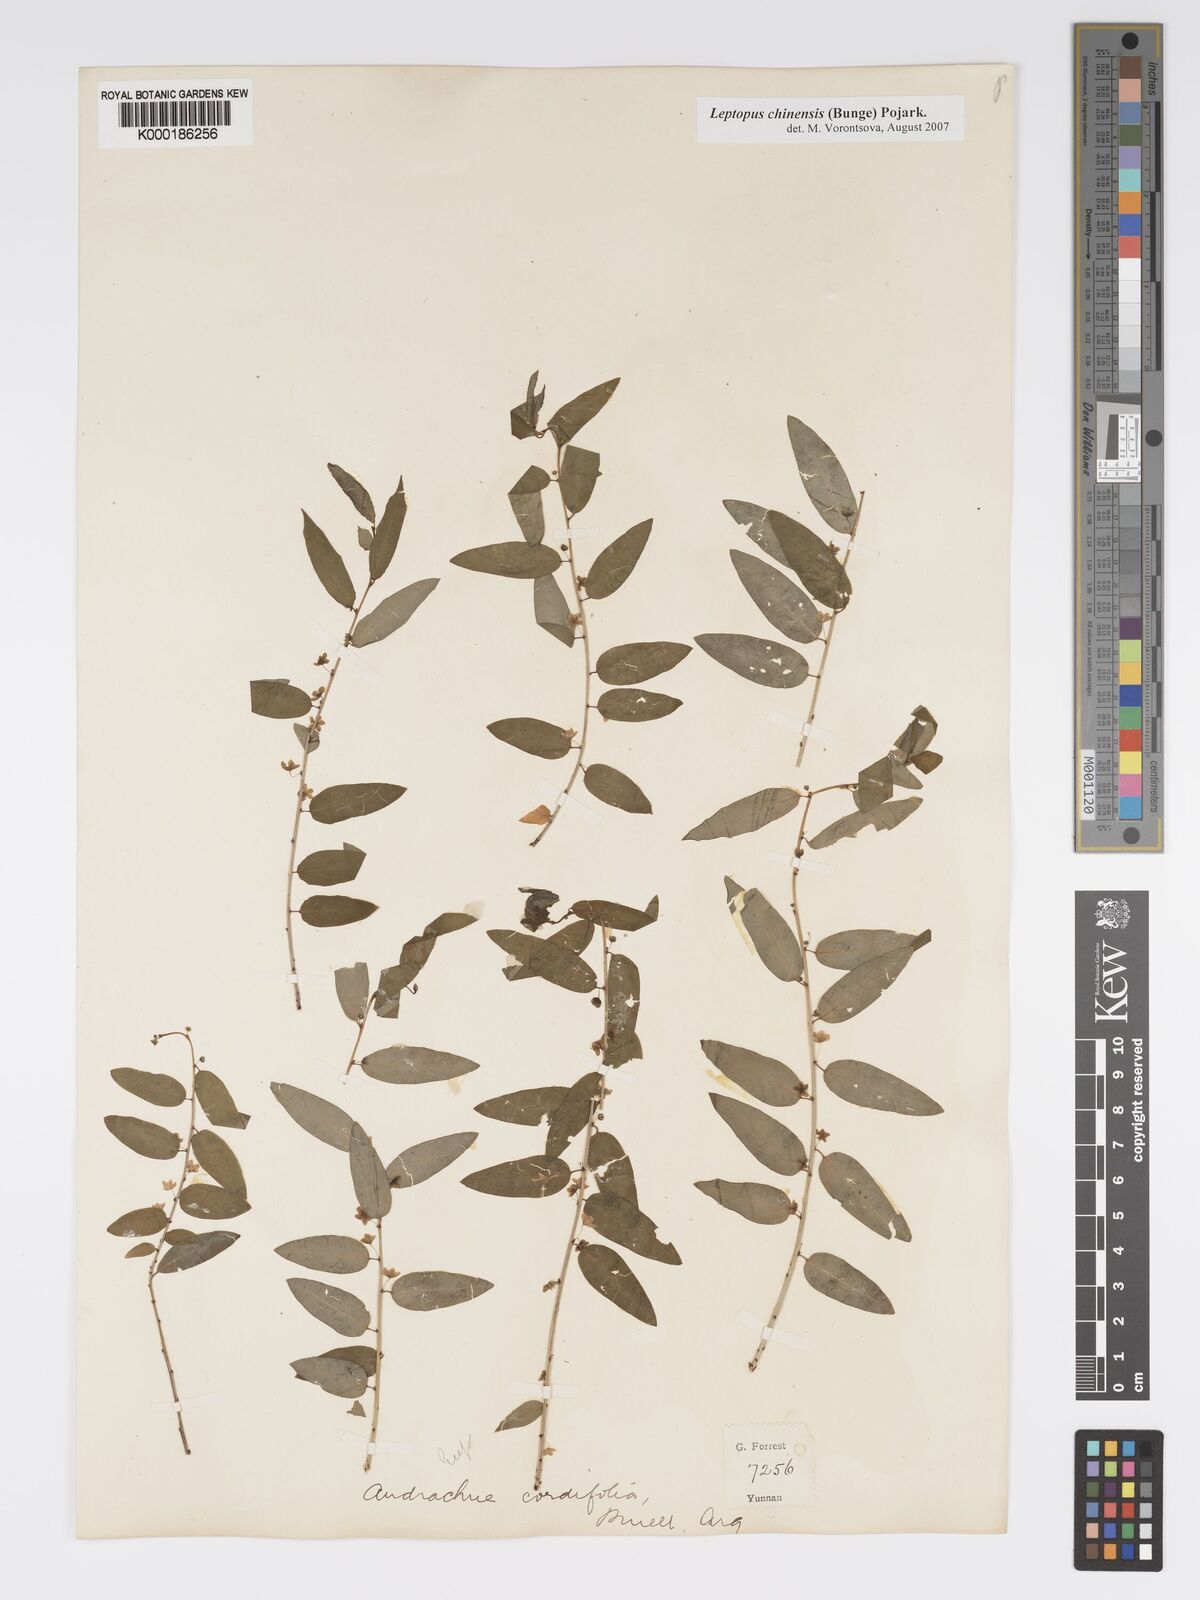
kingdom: Plantae
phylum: Tracheophyta
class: Magnoliopsida
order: Malpighiales
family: Phyllanthaceae
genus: Leptopus
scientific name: Leptopus cordifolius
